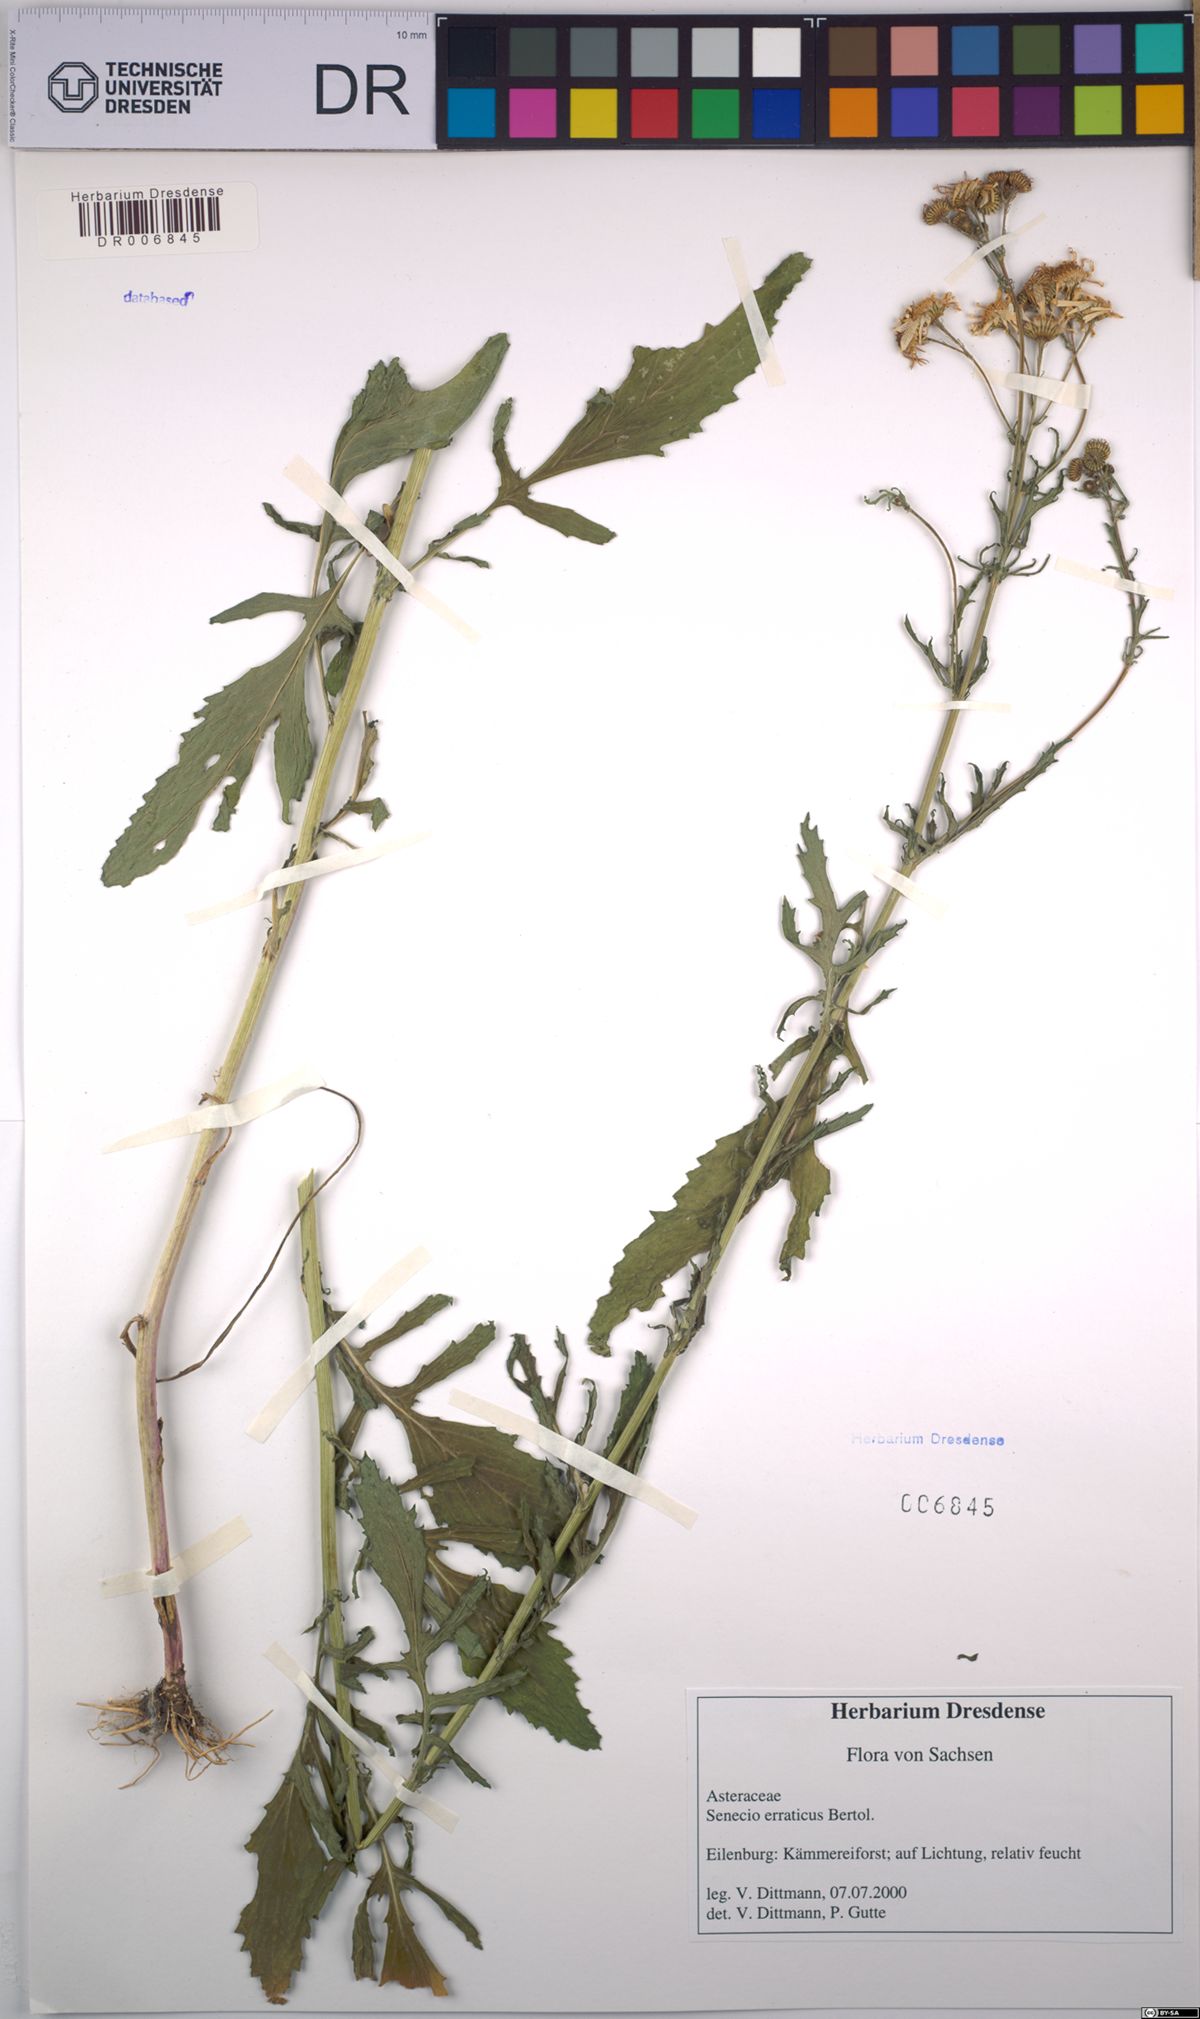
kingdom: Plantae
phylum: Tracheophyta
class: Magnoliopsida
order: Asterales
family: Asteraceae
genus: Jacobaea
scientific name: Jacobaea erratica
